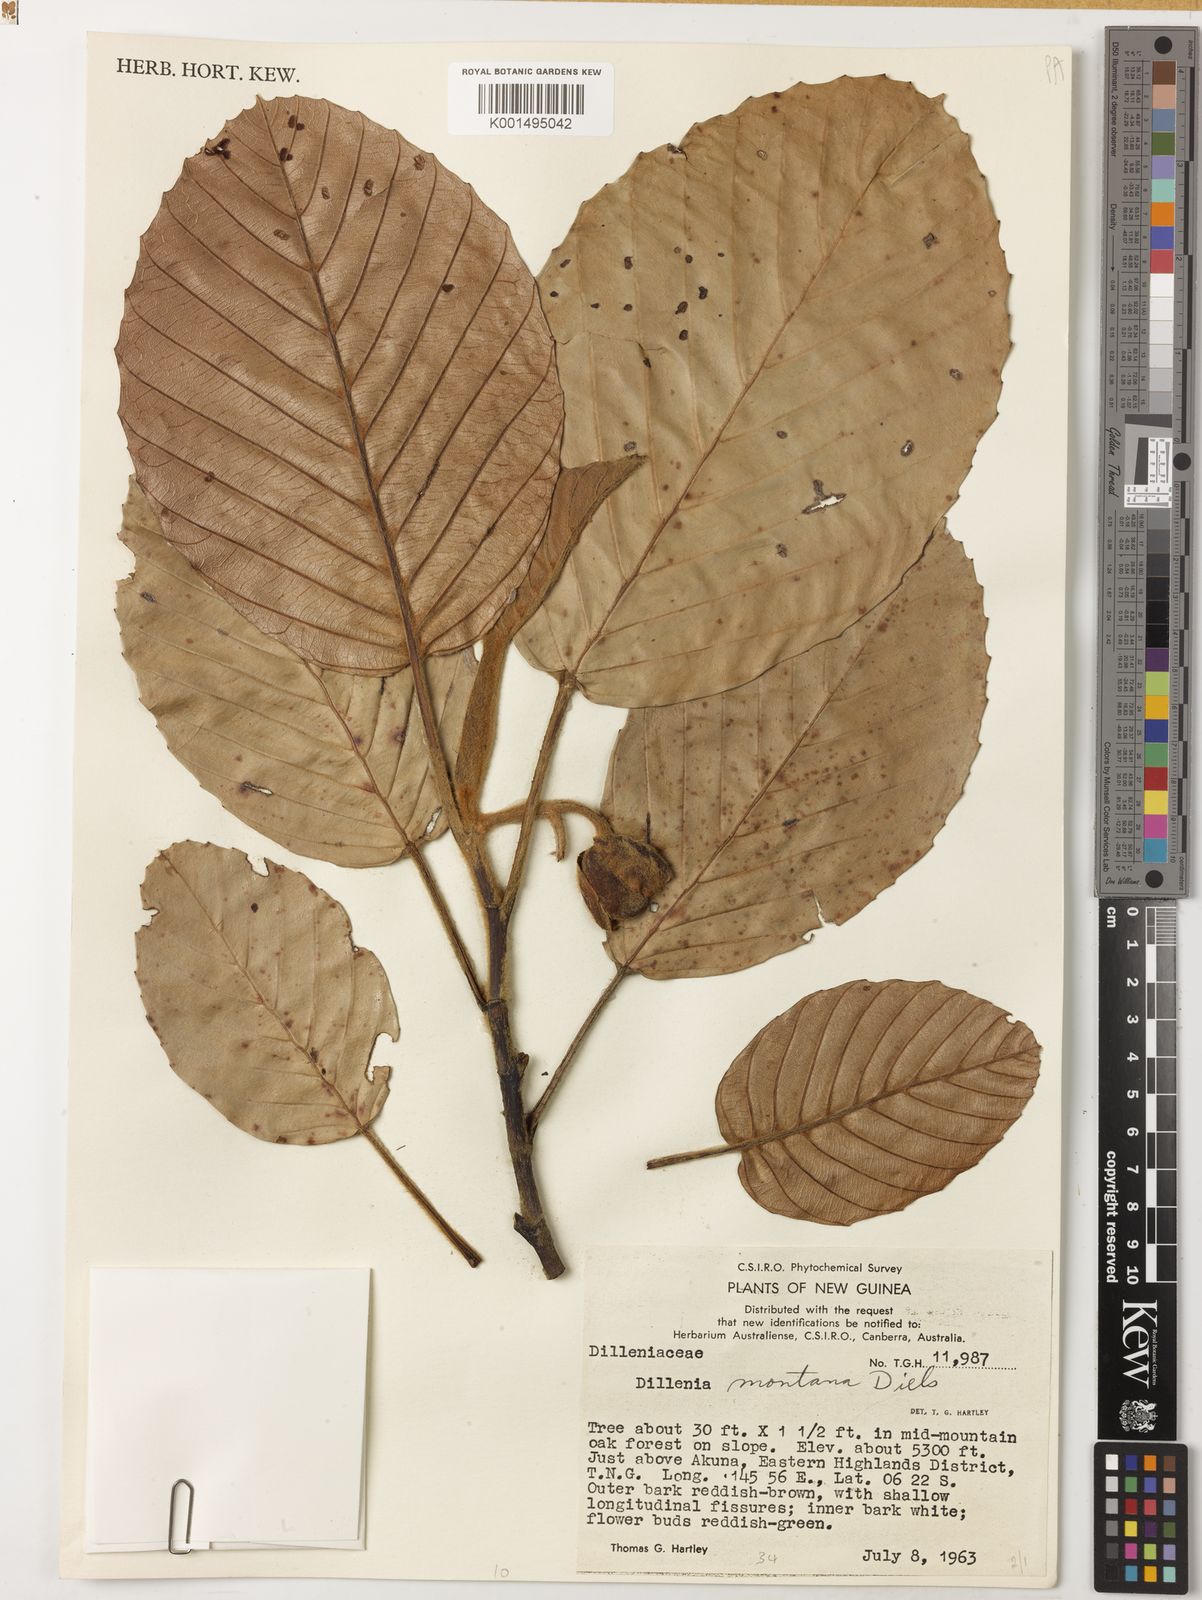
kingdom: Plantae
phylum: Tracheophyta
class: Magnoliopsida
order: Dilleniales
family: Dilleniaceae
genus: Dillenia
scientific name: Dillenia montana
